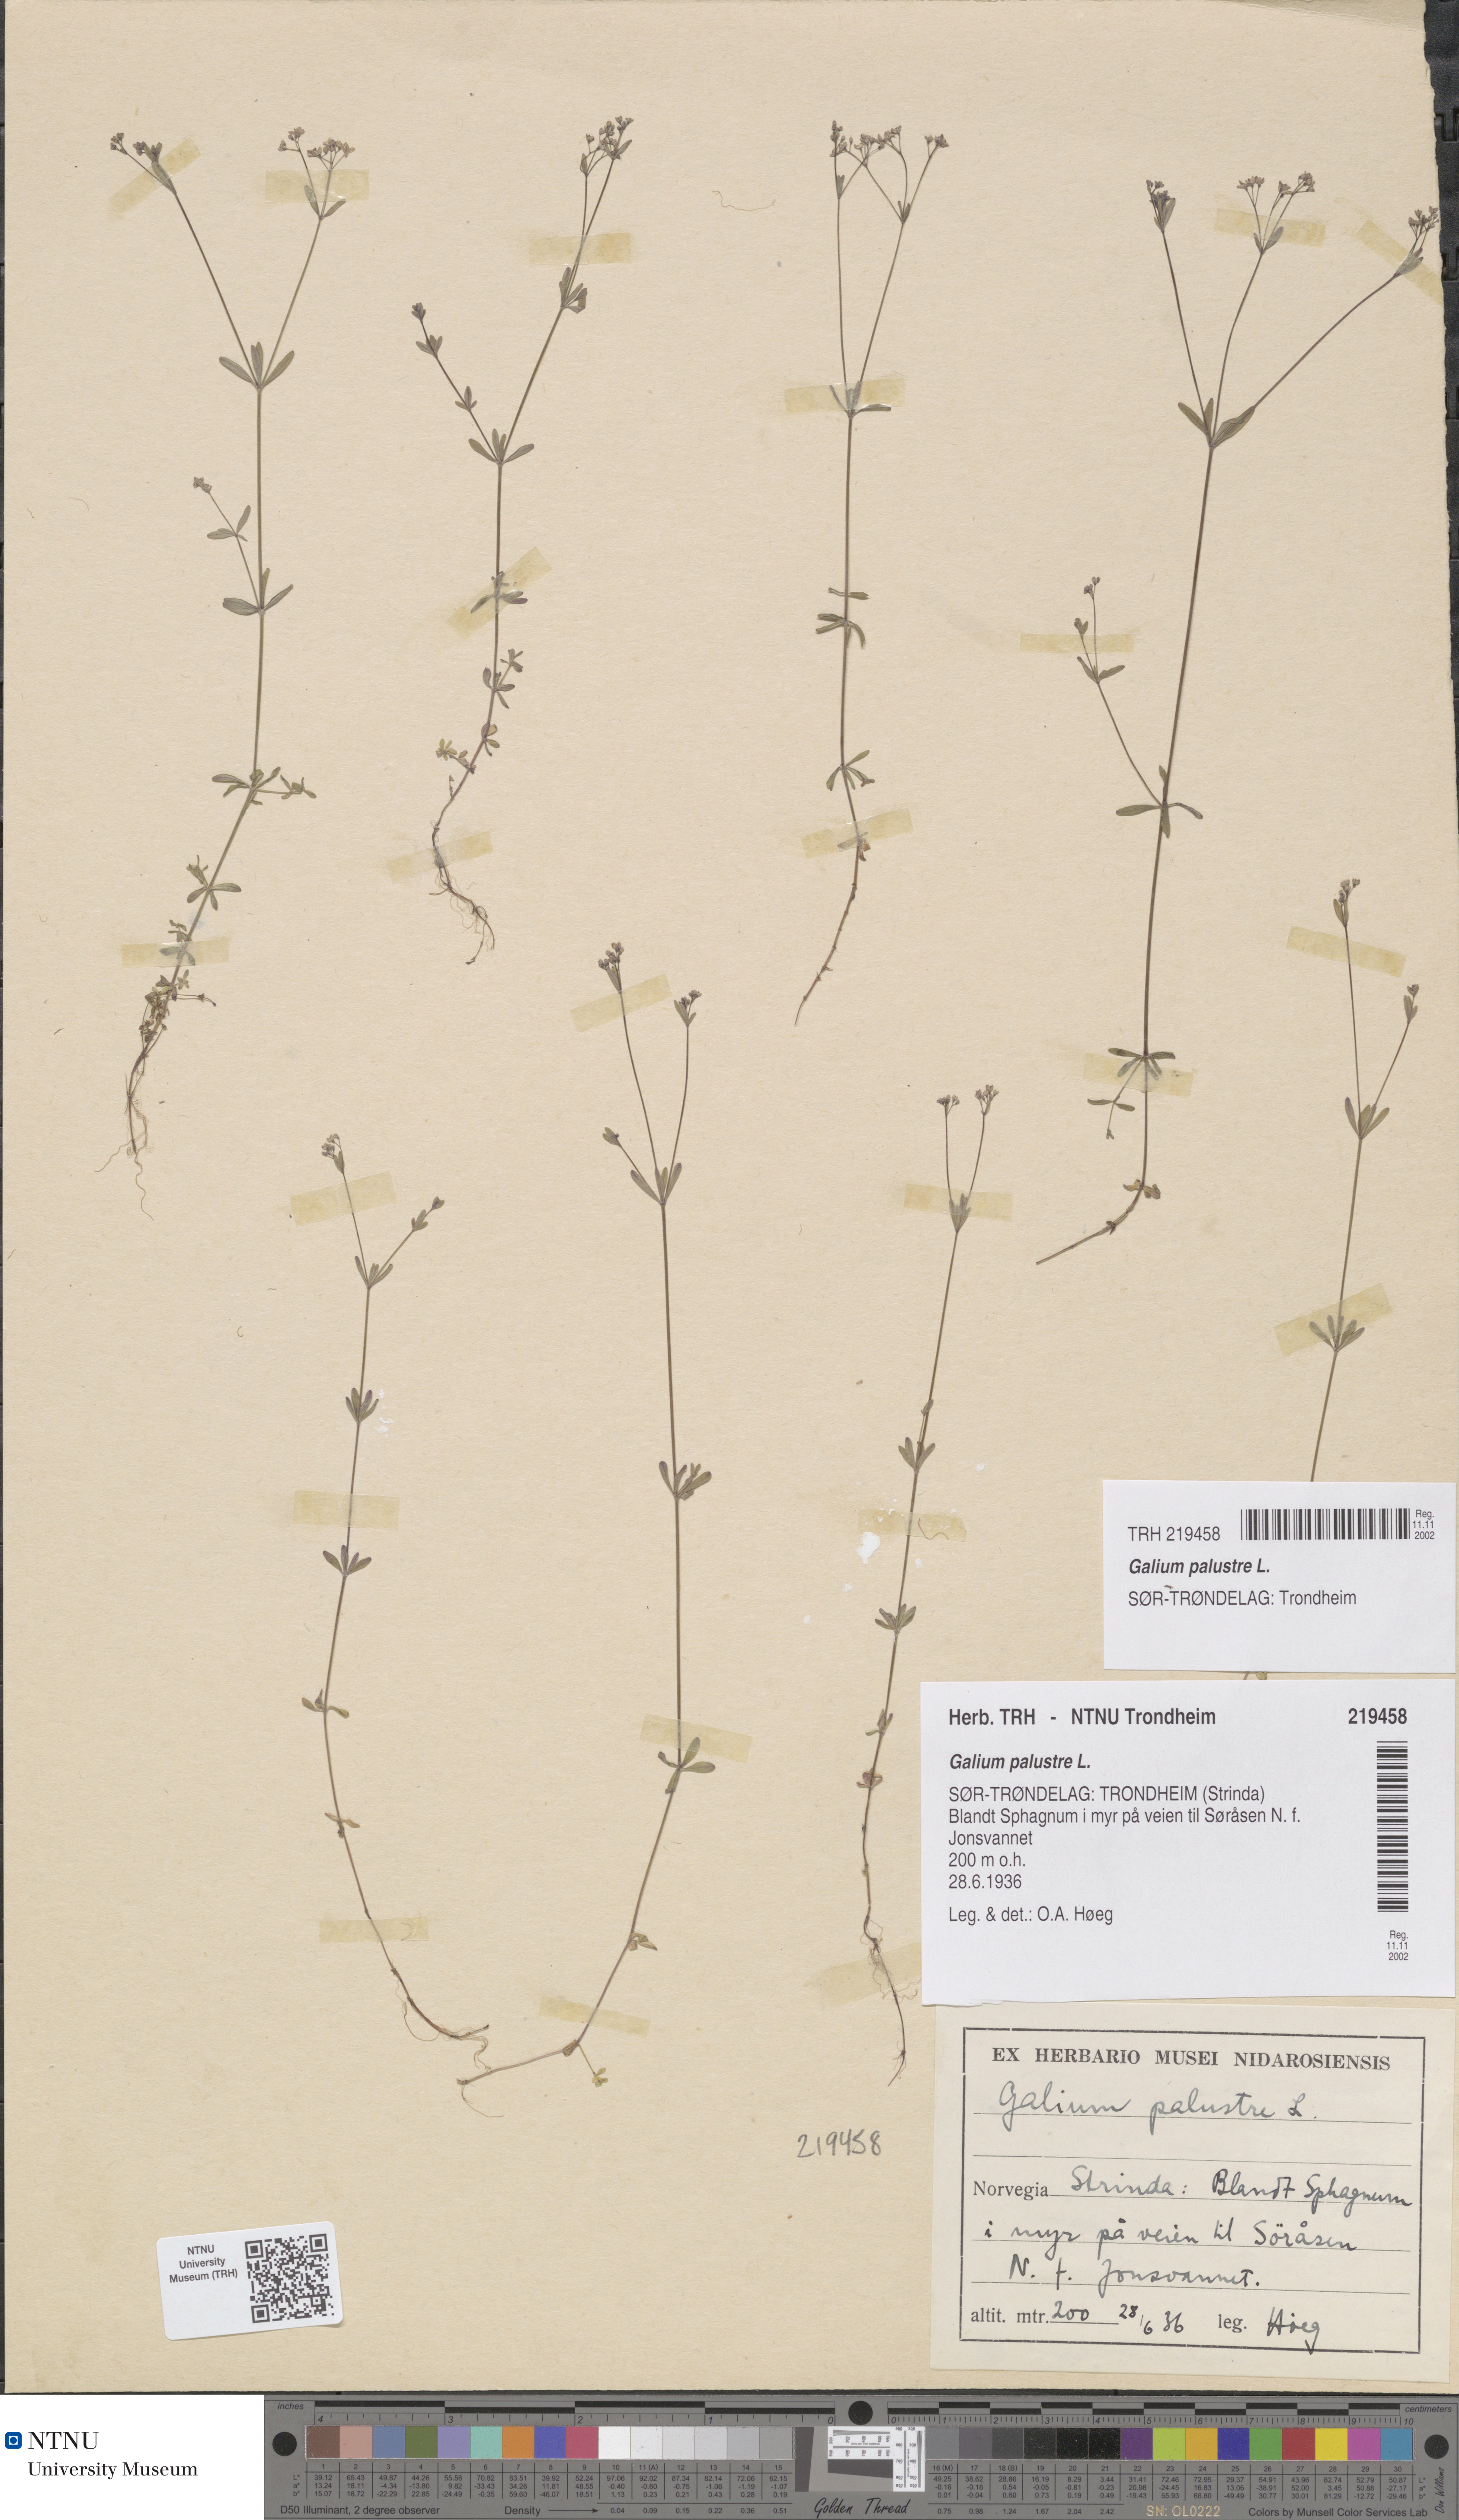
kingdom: Plantae
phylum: Tracheophyta
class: Magnoliopsida
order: Gentianales
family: Rubiaceae
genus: Galium
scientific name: Galium palustre
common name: Common marsh-bedstraw
